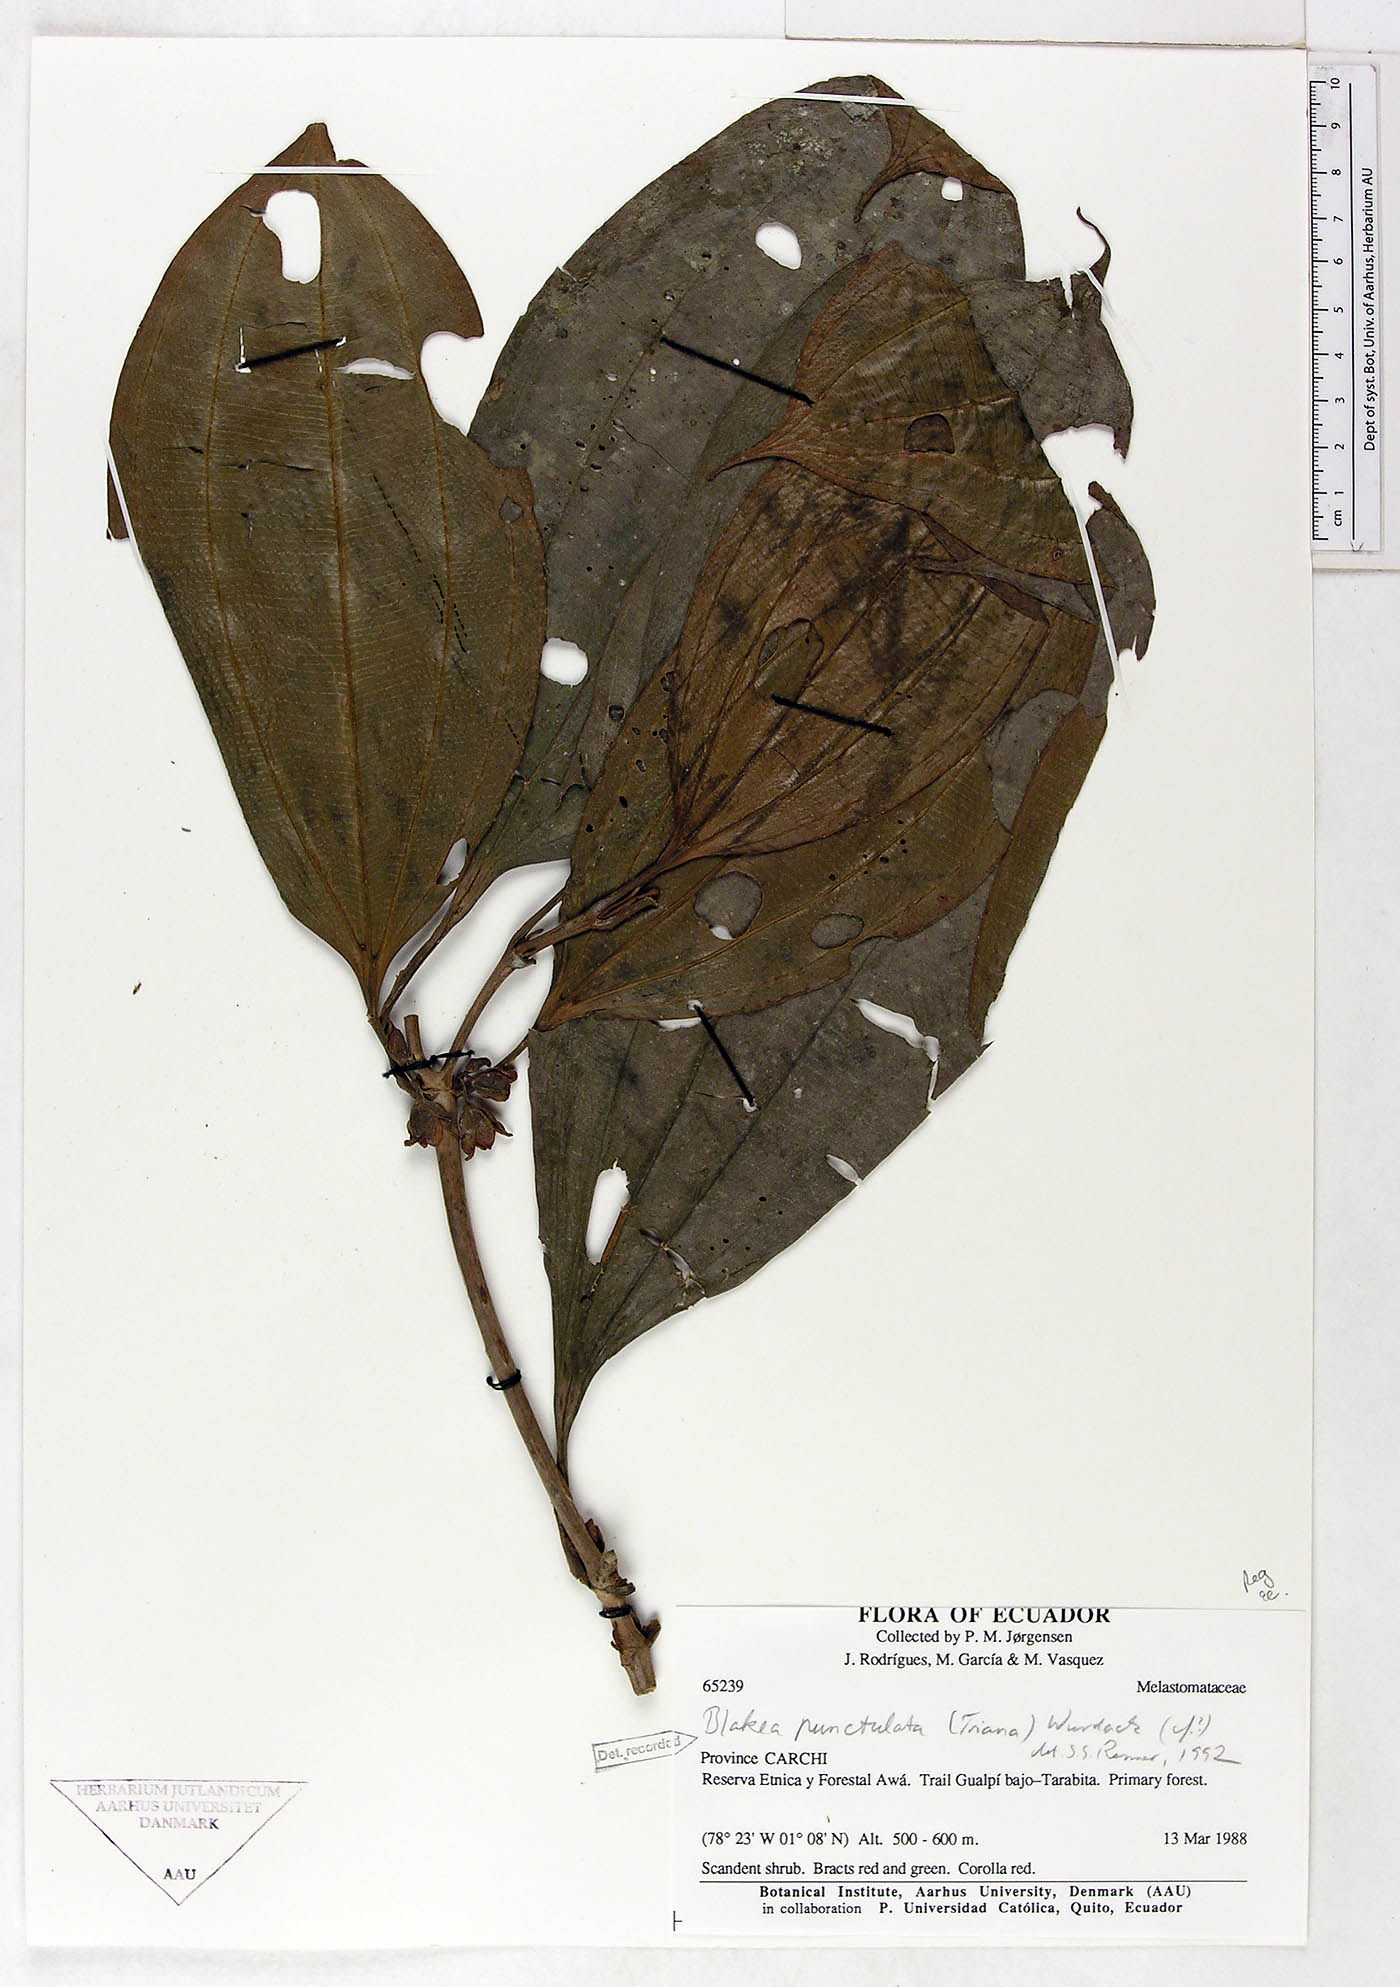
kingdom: Plantae
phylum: Tracheophyta
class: Magnoliopsida
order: Myrtales
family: Melastomataceae
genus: Blakea
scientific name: Blakea punctulata
